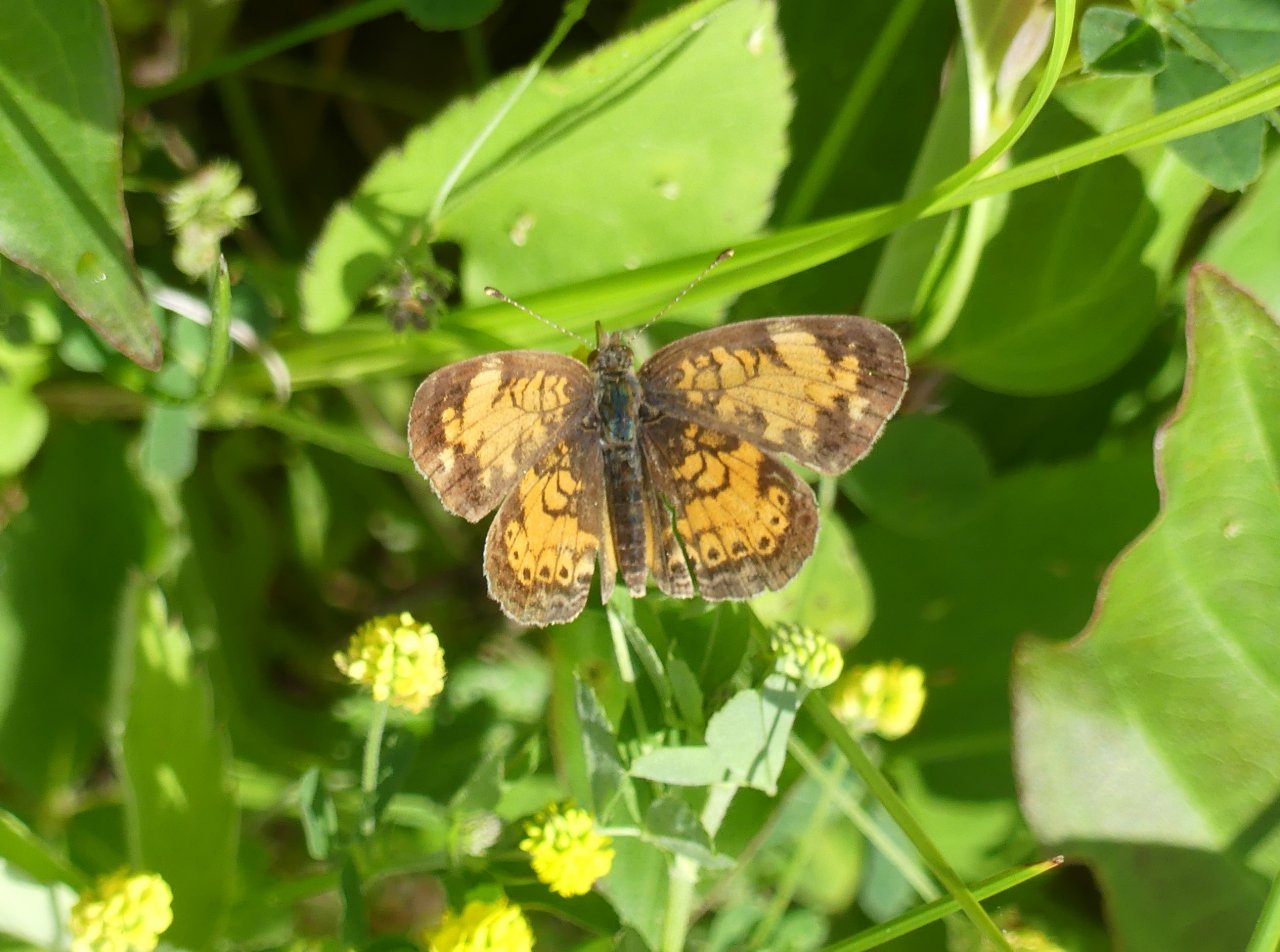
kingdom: Animalia
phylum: Arthropoda
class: Insecta
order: Lepidoptera
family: Nymphalidae
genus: Phyciodes
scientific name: Phyciodes tharos
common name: Northern Crescent
